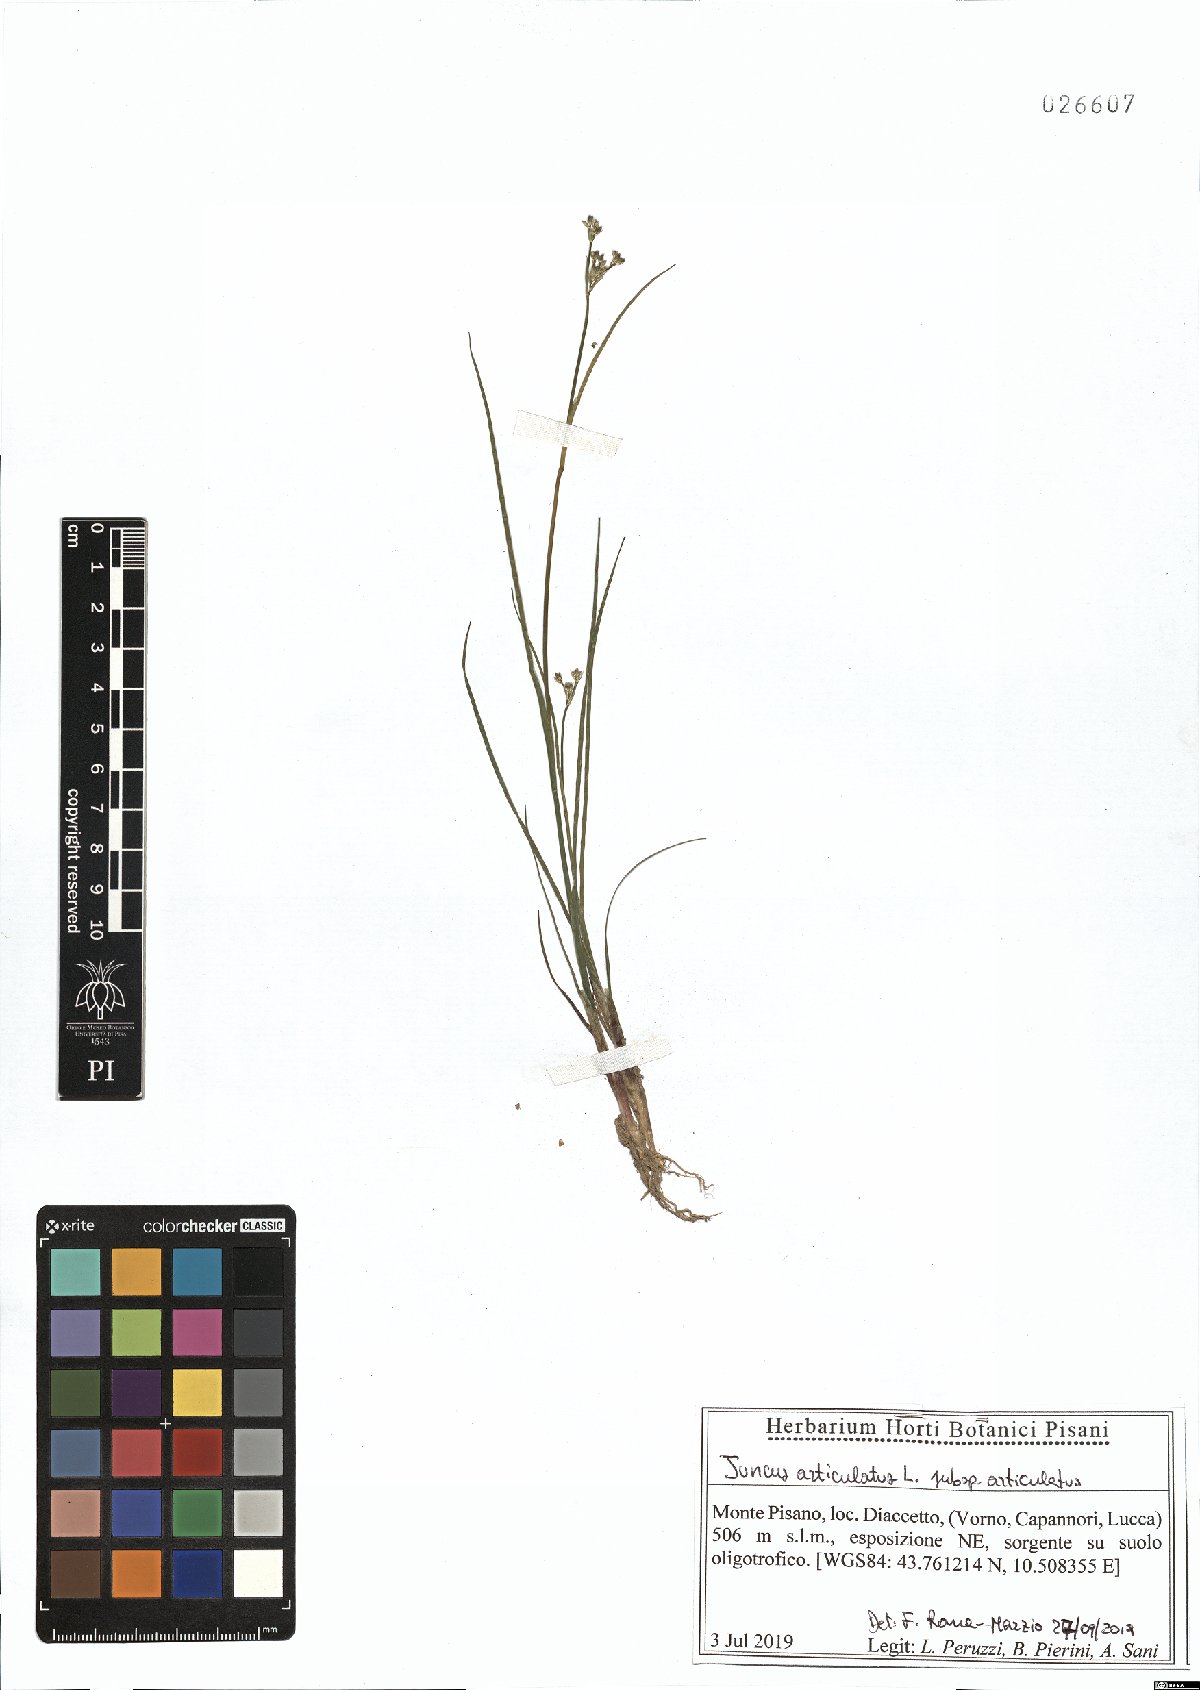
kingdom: Plantae
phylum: Tracheophyta
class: Liliopsida
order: Poales
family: Juncaceae
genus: Juncus
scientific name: Juncus articulatus
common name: Jointed rush
